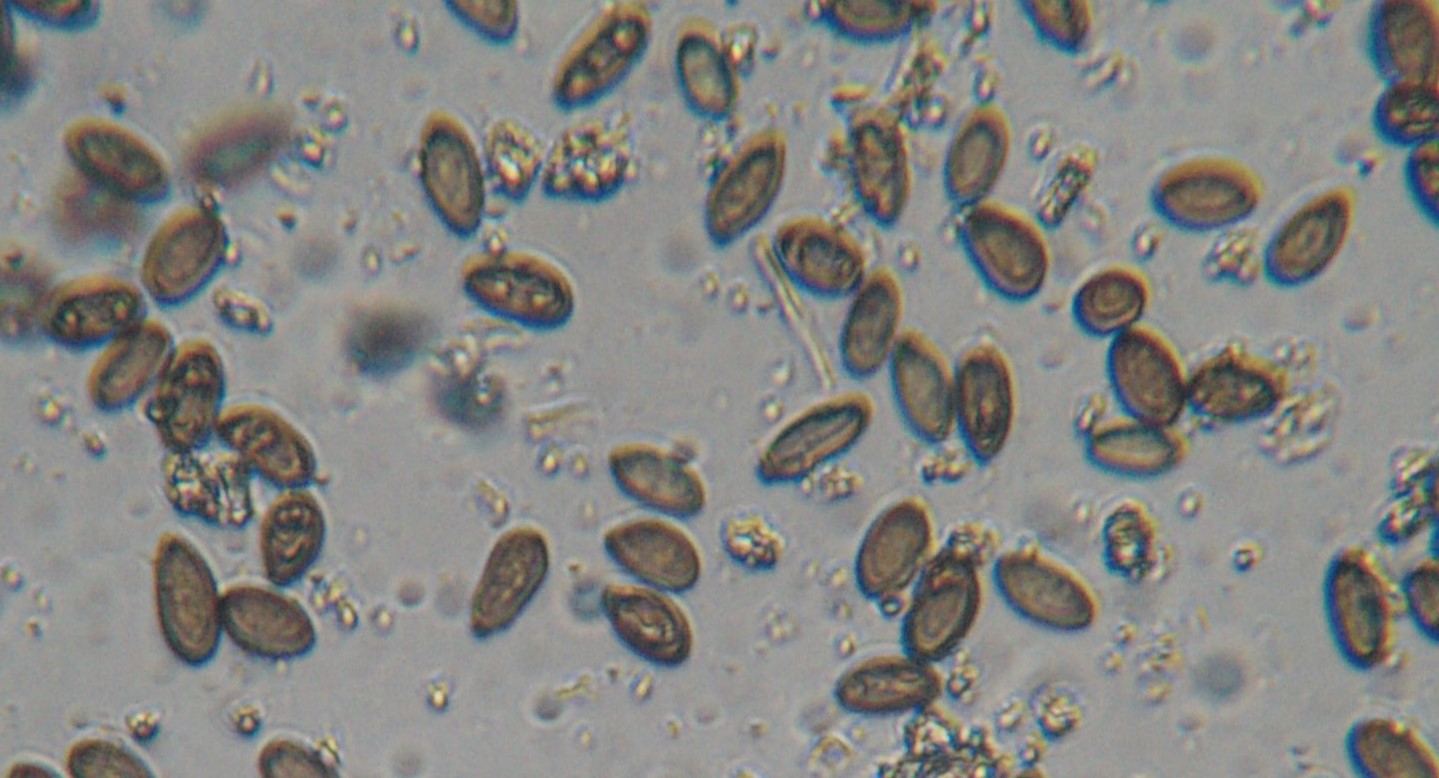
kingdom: Fungi
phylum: Ascomycota
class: Sordariomycetes
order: Diaporthales
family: Melanconidaceae
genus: Melanconis
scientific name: Melanconis stilbostoma
